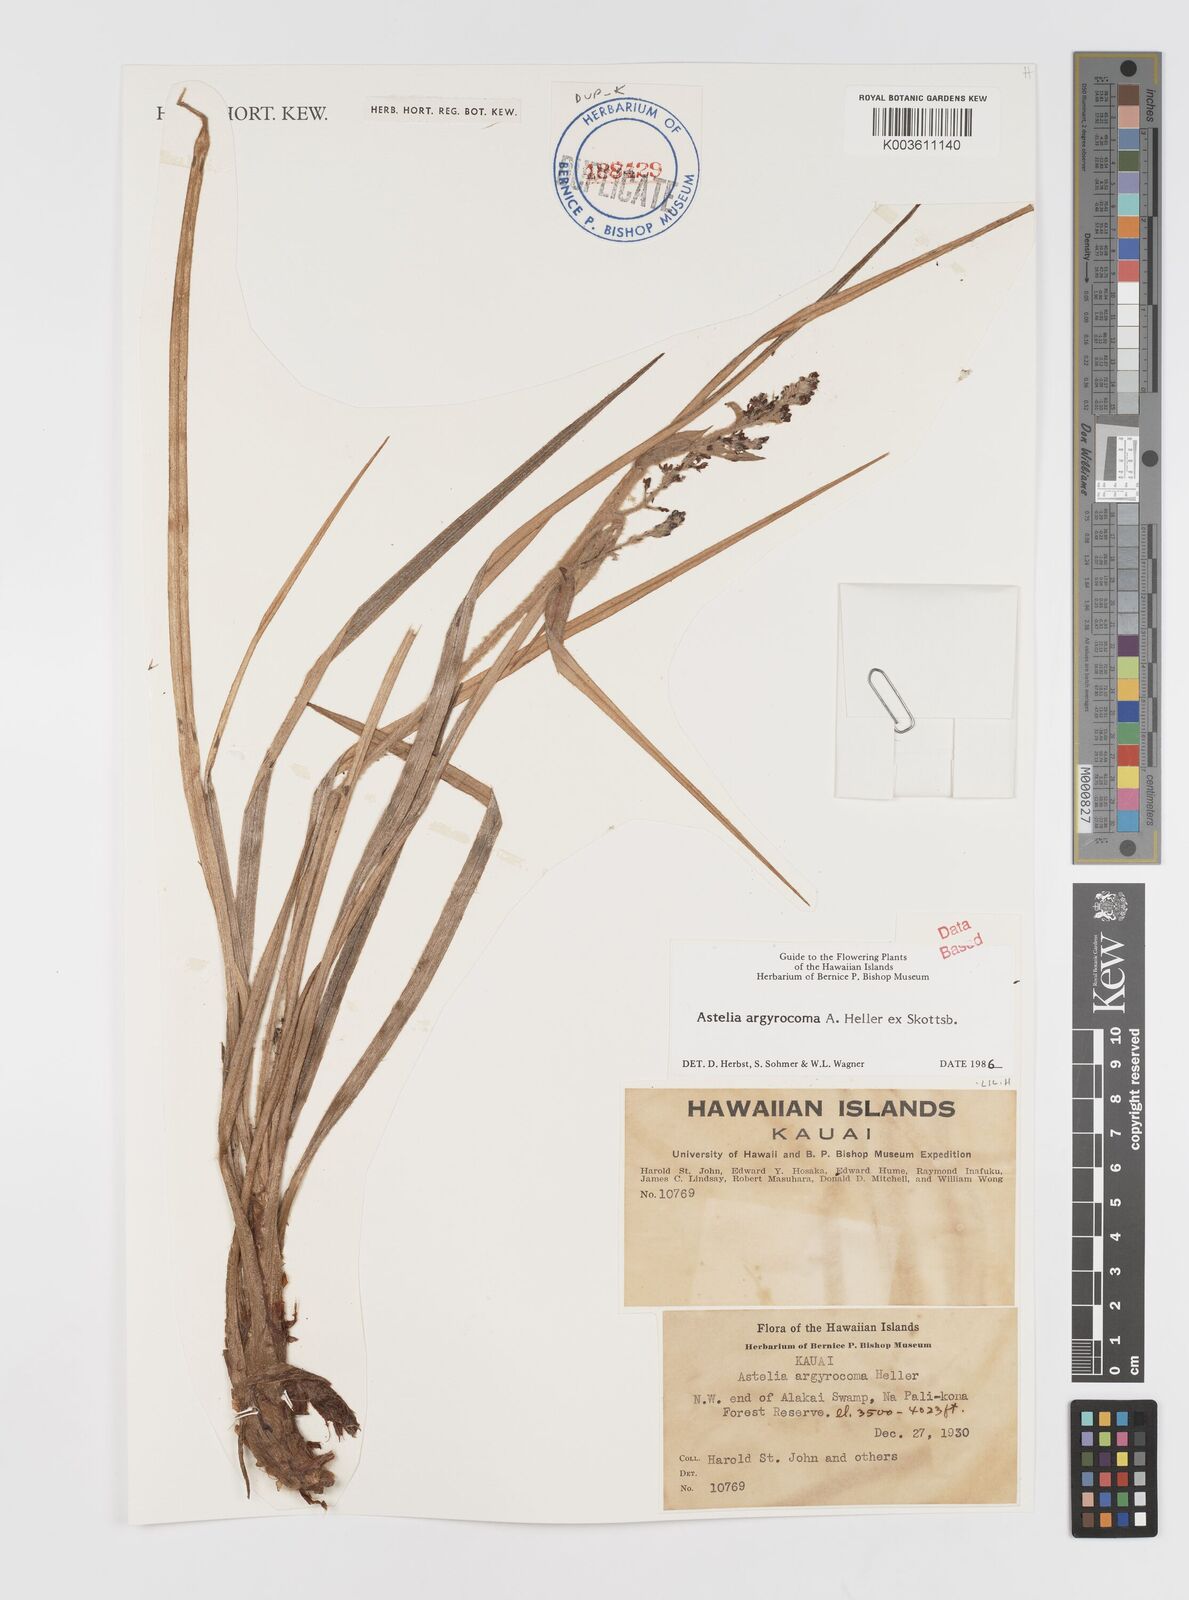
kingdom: Plantae
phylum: Tracheophyta
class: Liliopsida
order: Asparagales
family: Asteliaceae
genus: Astelia
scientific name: Astelia argyrocoma
